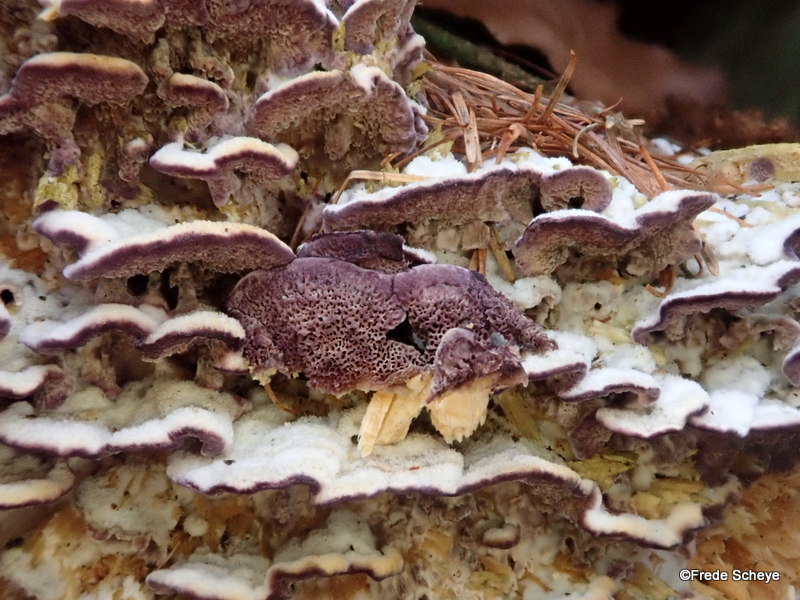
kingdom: Fungi
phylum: Basidiomycota
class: Agaricomycetes
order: Hymenochaetales
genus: Trichaptum
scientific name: Trichaptum abietinum
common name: almindelig violporesvamp
